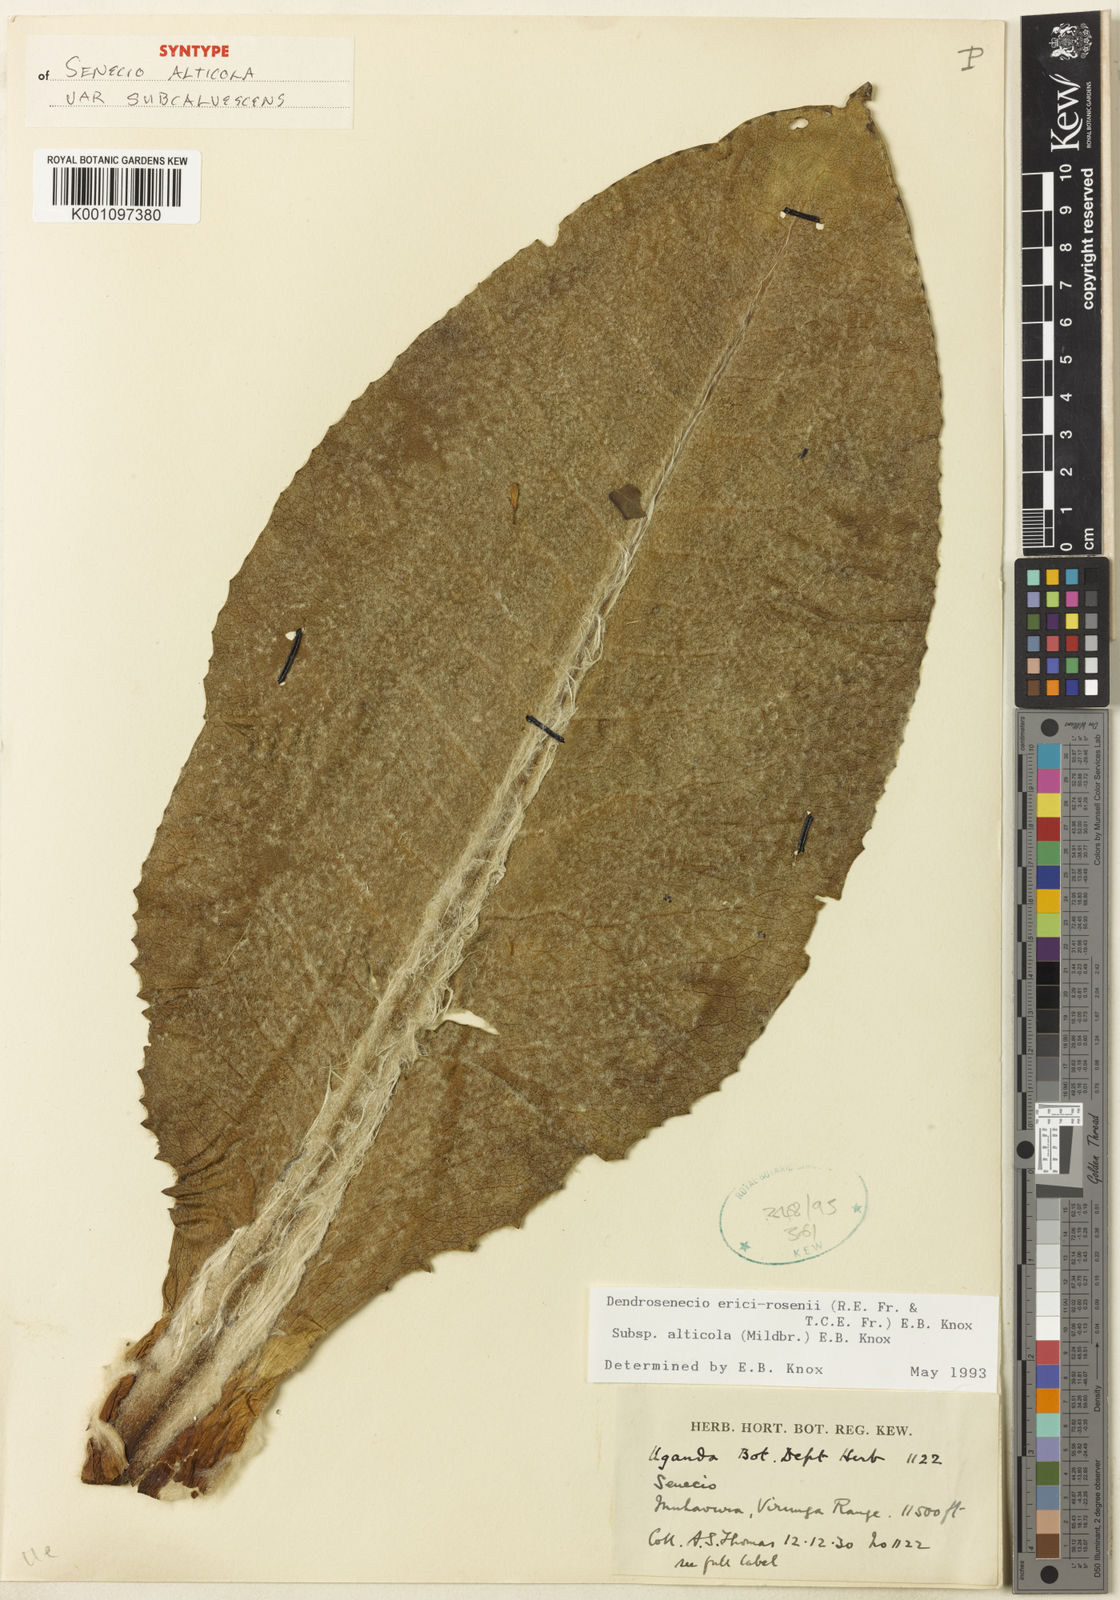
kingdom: Plantae
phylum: Tracheophyta
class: Magnoliopsida
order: Asterales
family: Asteraceae
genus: Dendrosenecio
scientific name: Dendrosenecio erici-rosenii
